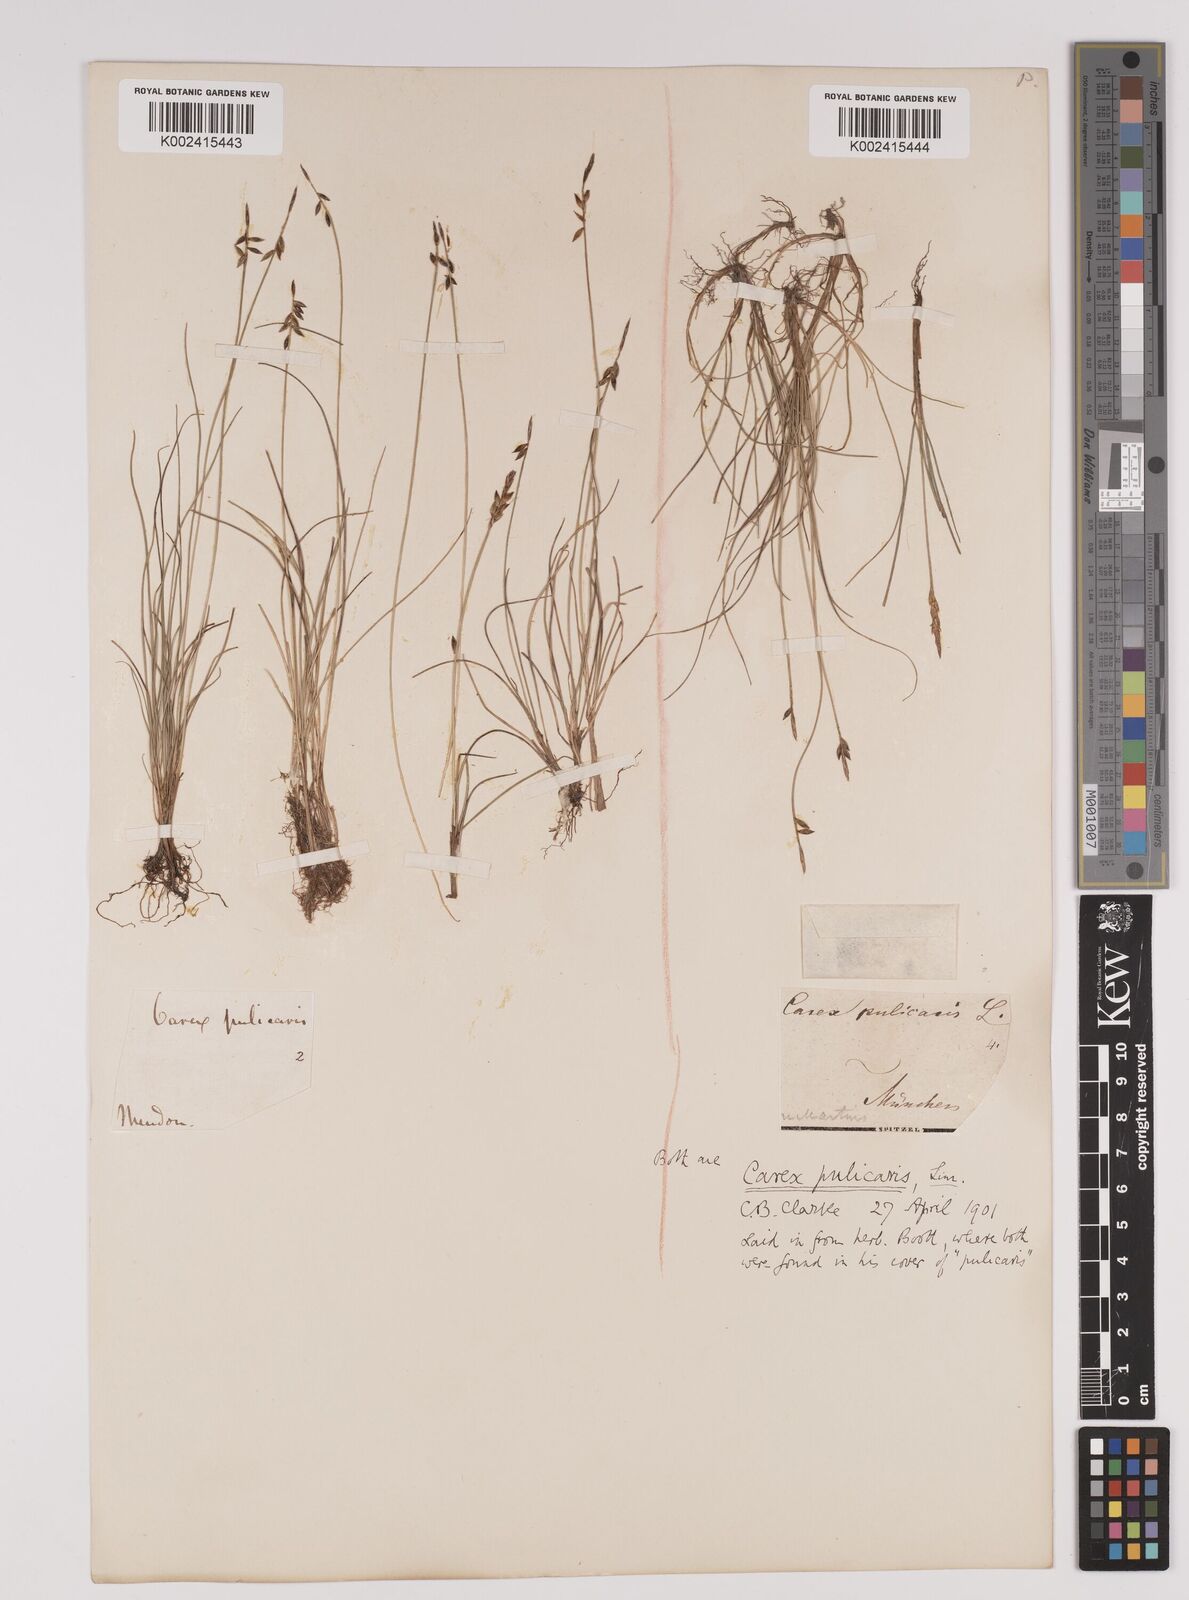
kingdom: Plantae
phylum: Tracheophyta
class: Liliopsida
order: Poales
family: Cyperaceae
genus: Carex
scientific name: Carex pulicaris
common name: Flea sedge
